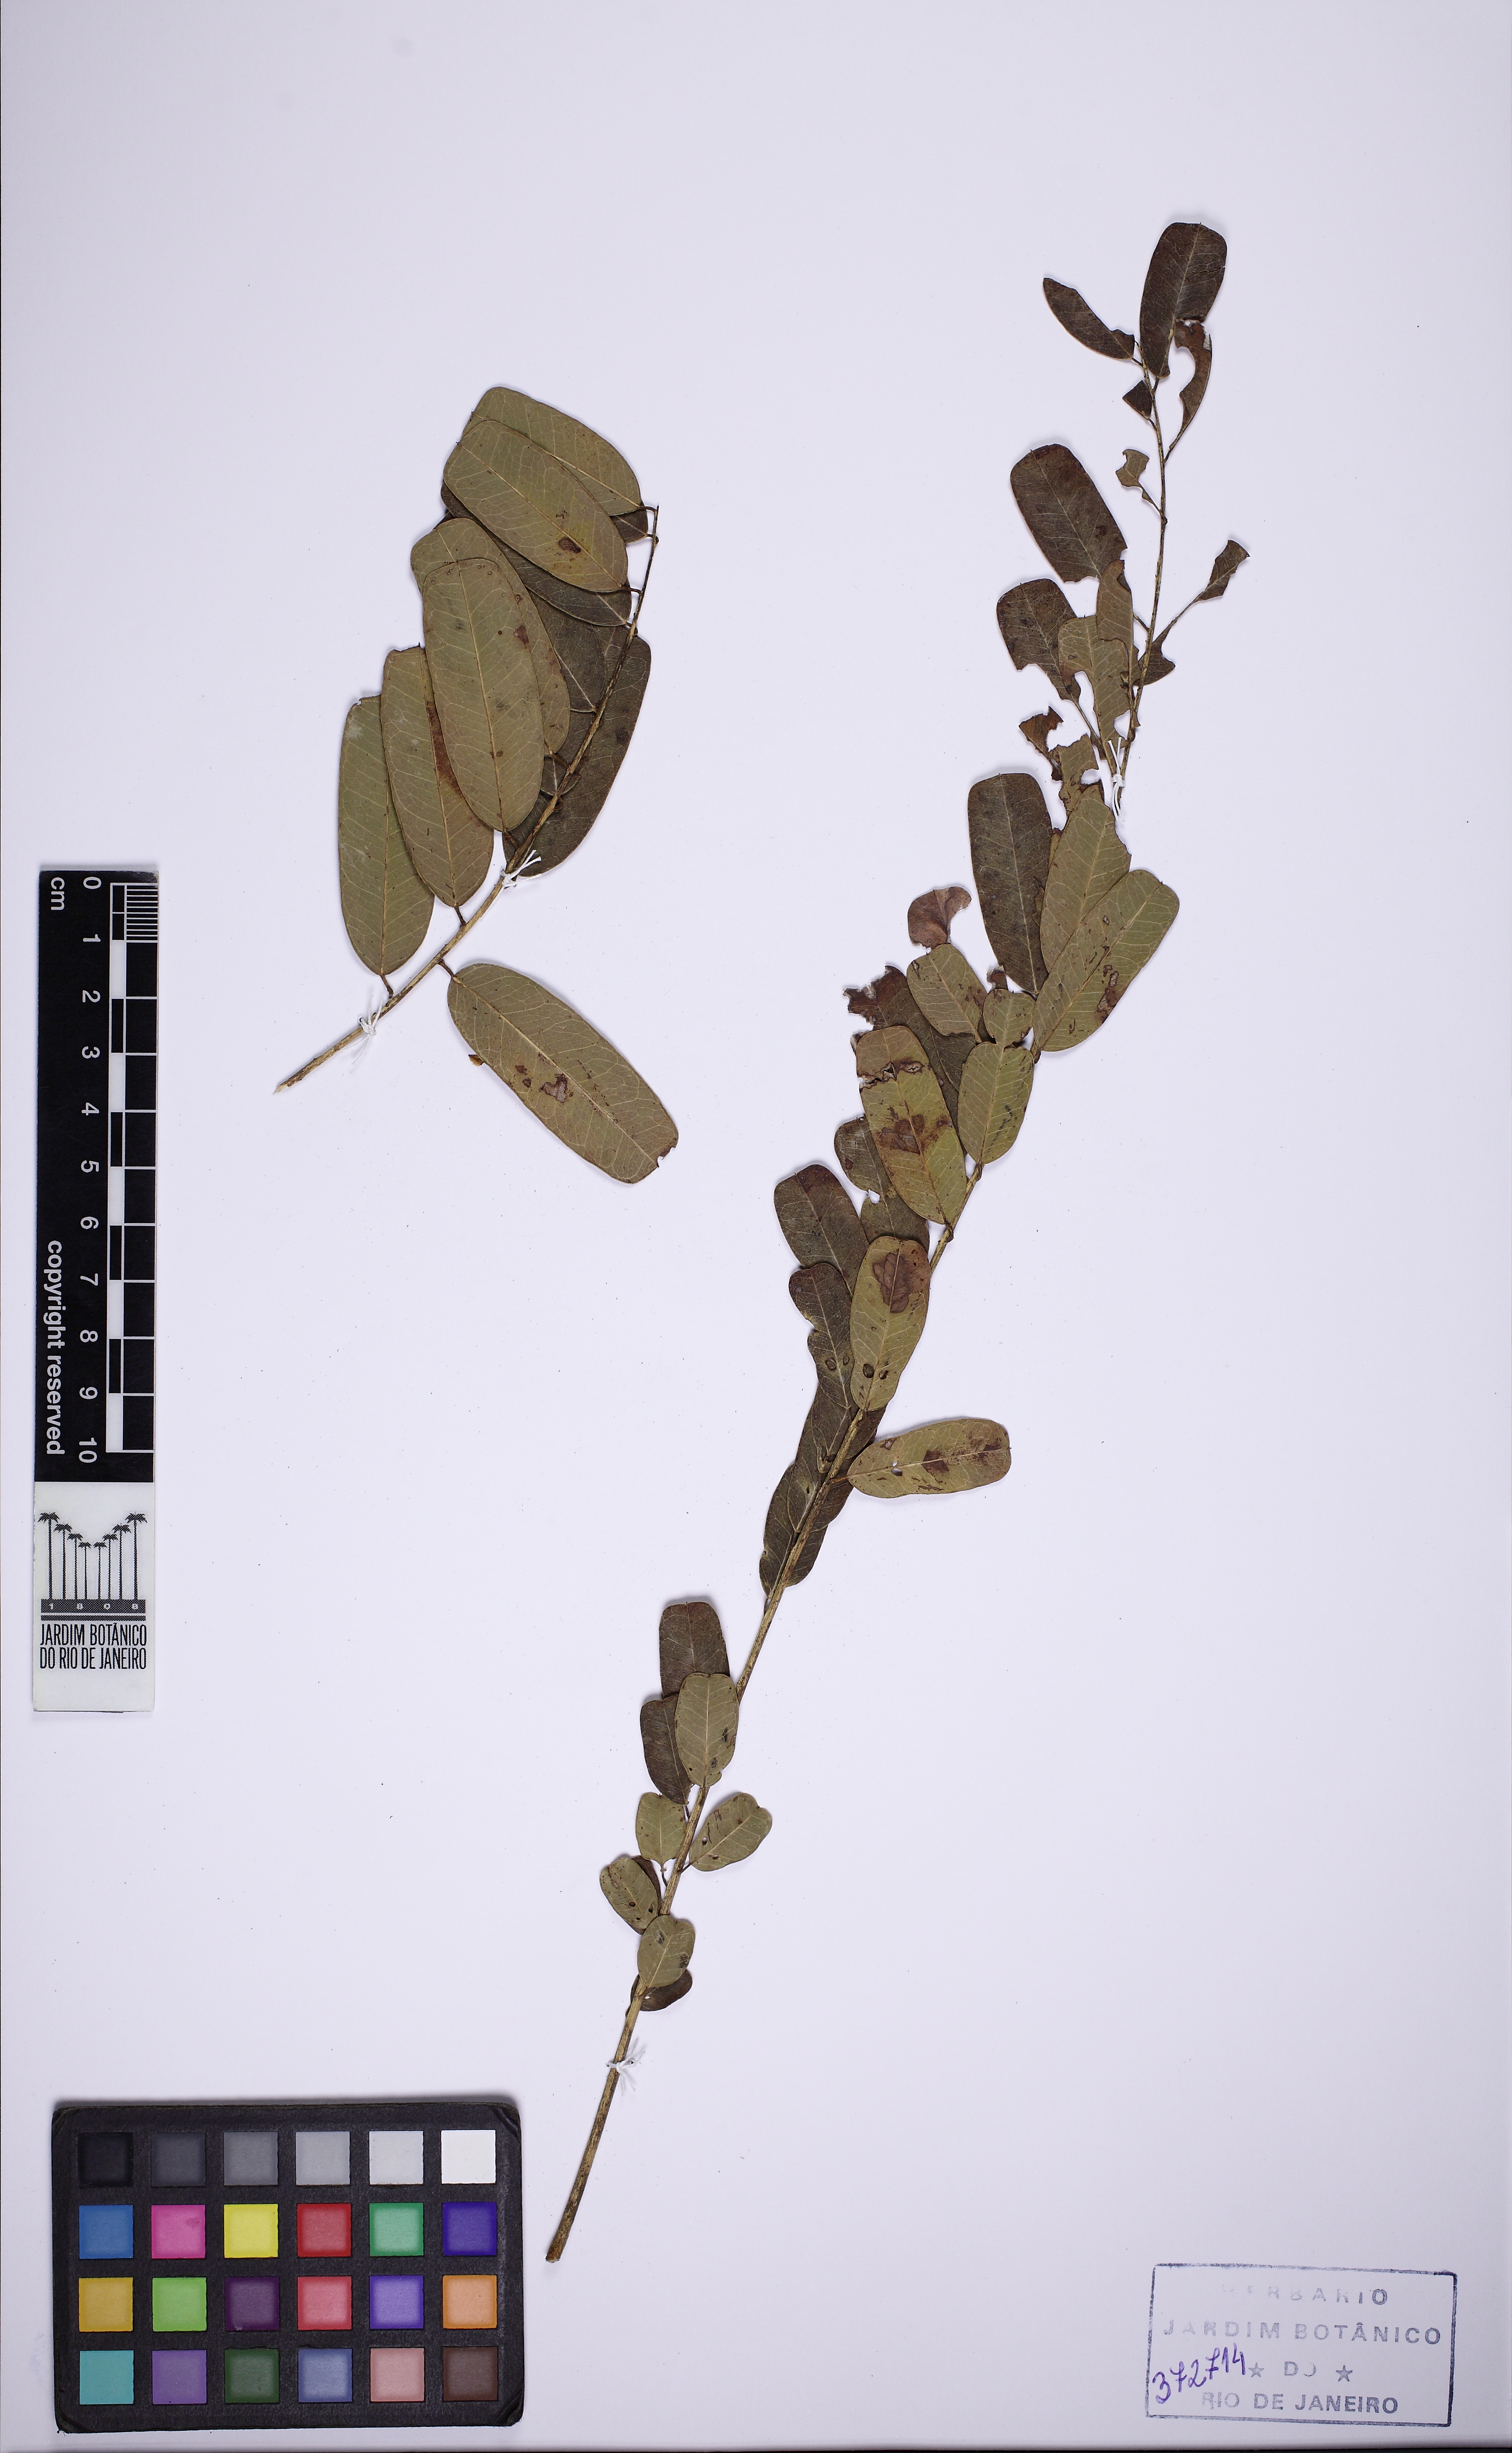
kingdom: Plantae
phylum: Tracheophyta
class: Magnoliopsida
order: Fabales
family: Fabaceae
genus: Vataireopsis
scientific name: Vataireopsis araroba
